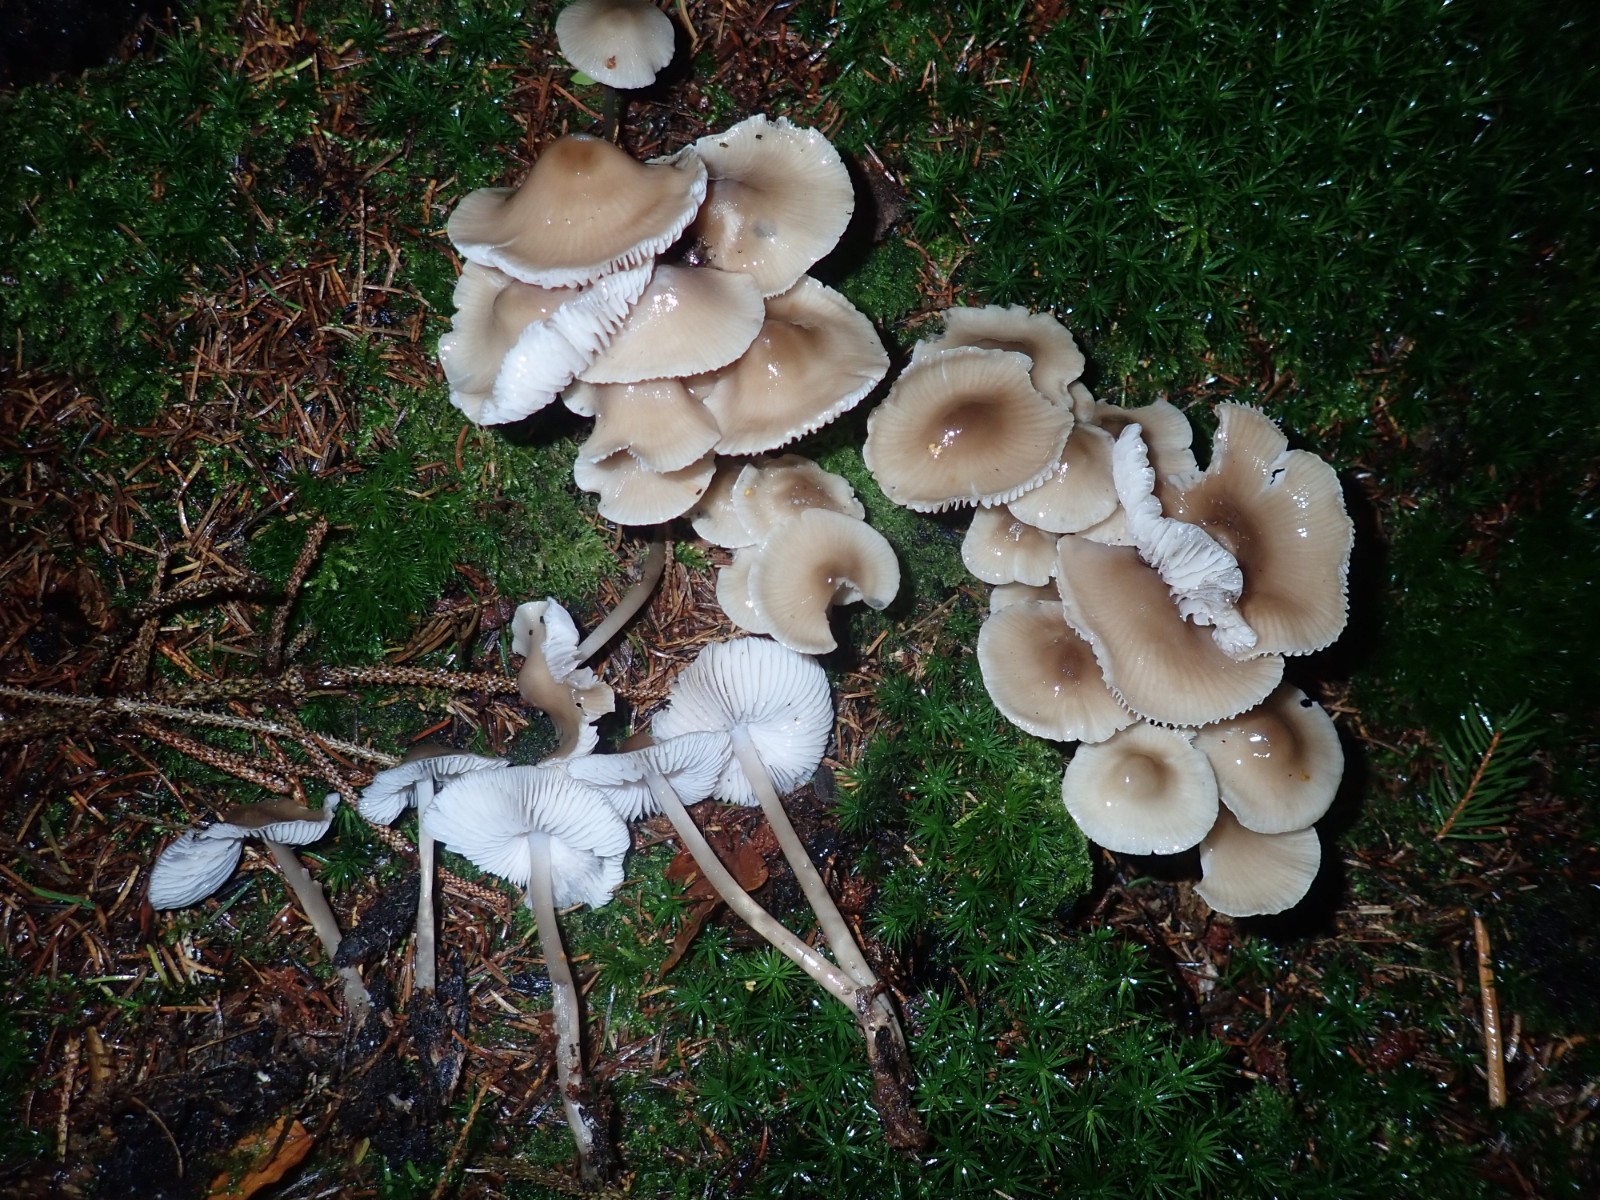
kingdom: Fungi
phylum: Basidiomycota
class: Agaricomycetes
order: Agaricales
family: Mycenaceae
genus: Mycena
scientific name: Mycena galericulata
